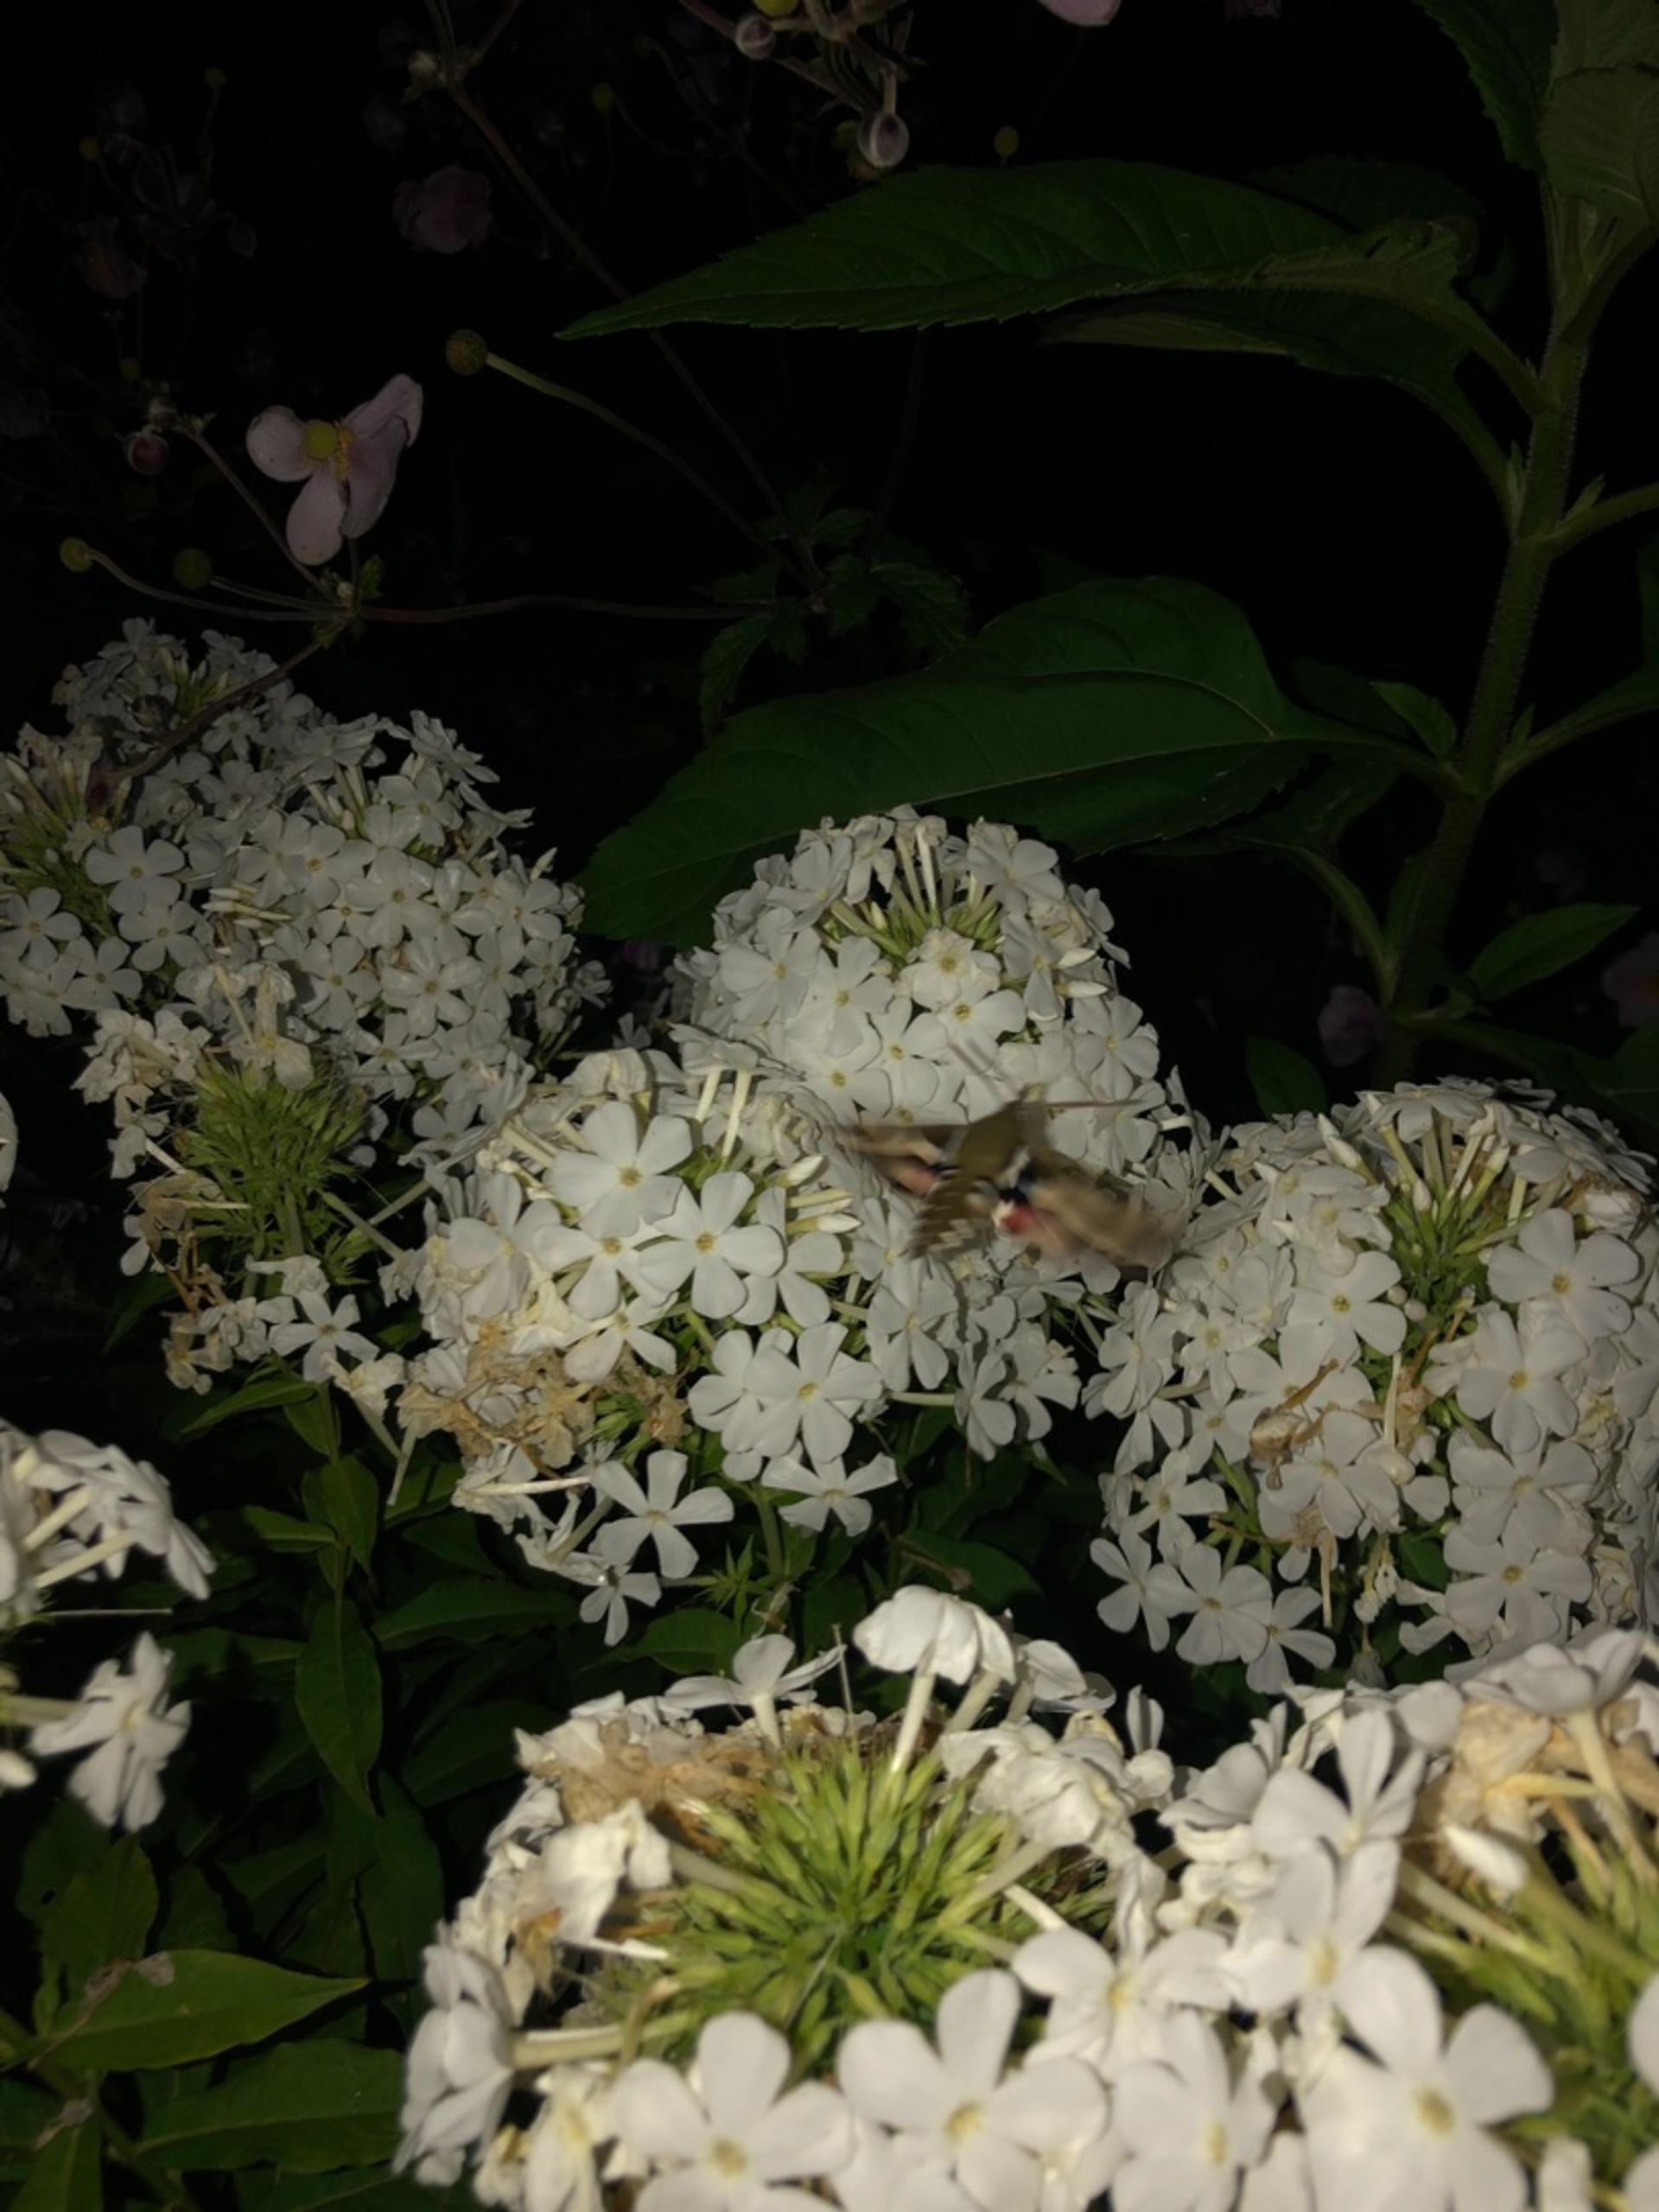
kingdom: Animalia
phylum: Arthropoda
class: Insecta
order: Lepidoptera
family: Sphingidae
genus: Hyles
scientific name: Hyles gallii
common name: Snerresværmer
